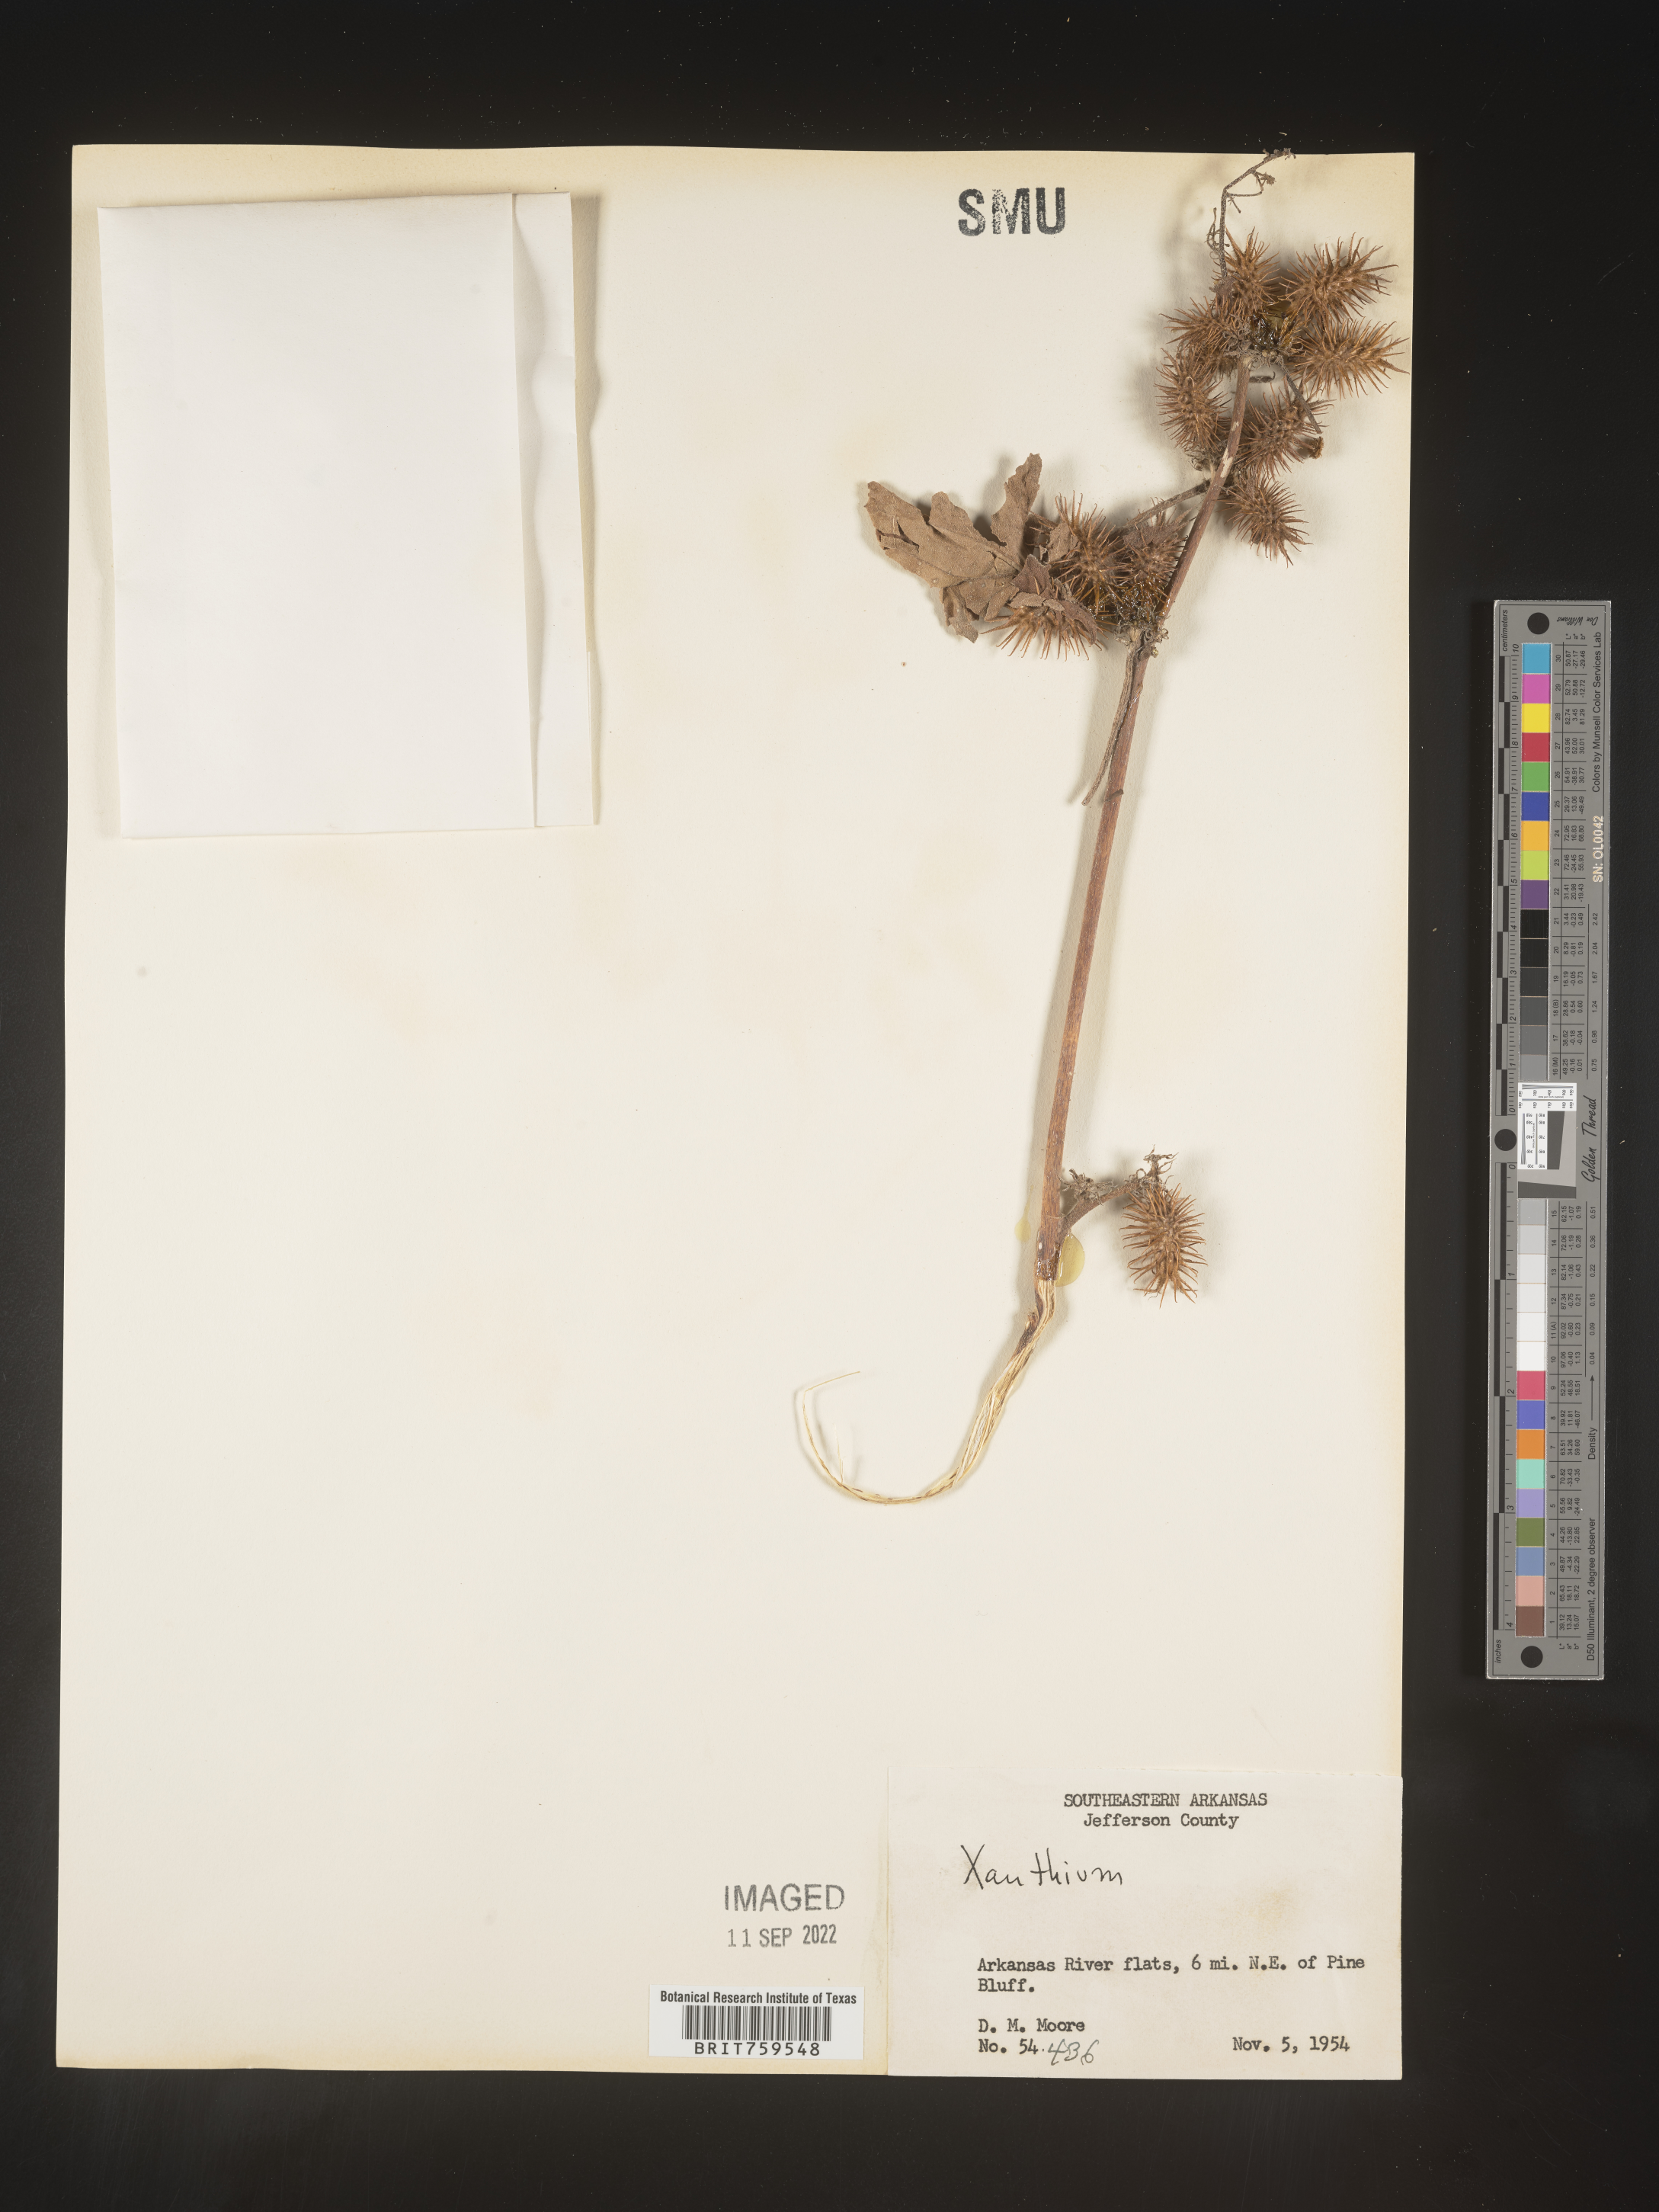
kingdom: Plantae
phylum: Tracheophyta
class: Magnoliopsida
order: Asterales
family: Asteraceae
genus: Xanthium
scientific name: Xanthium
